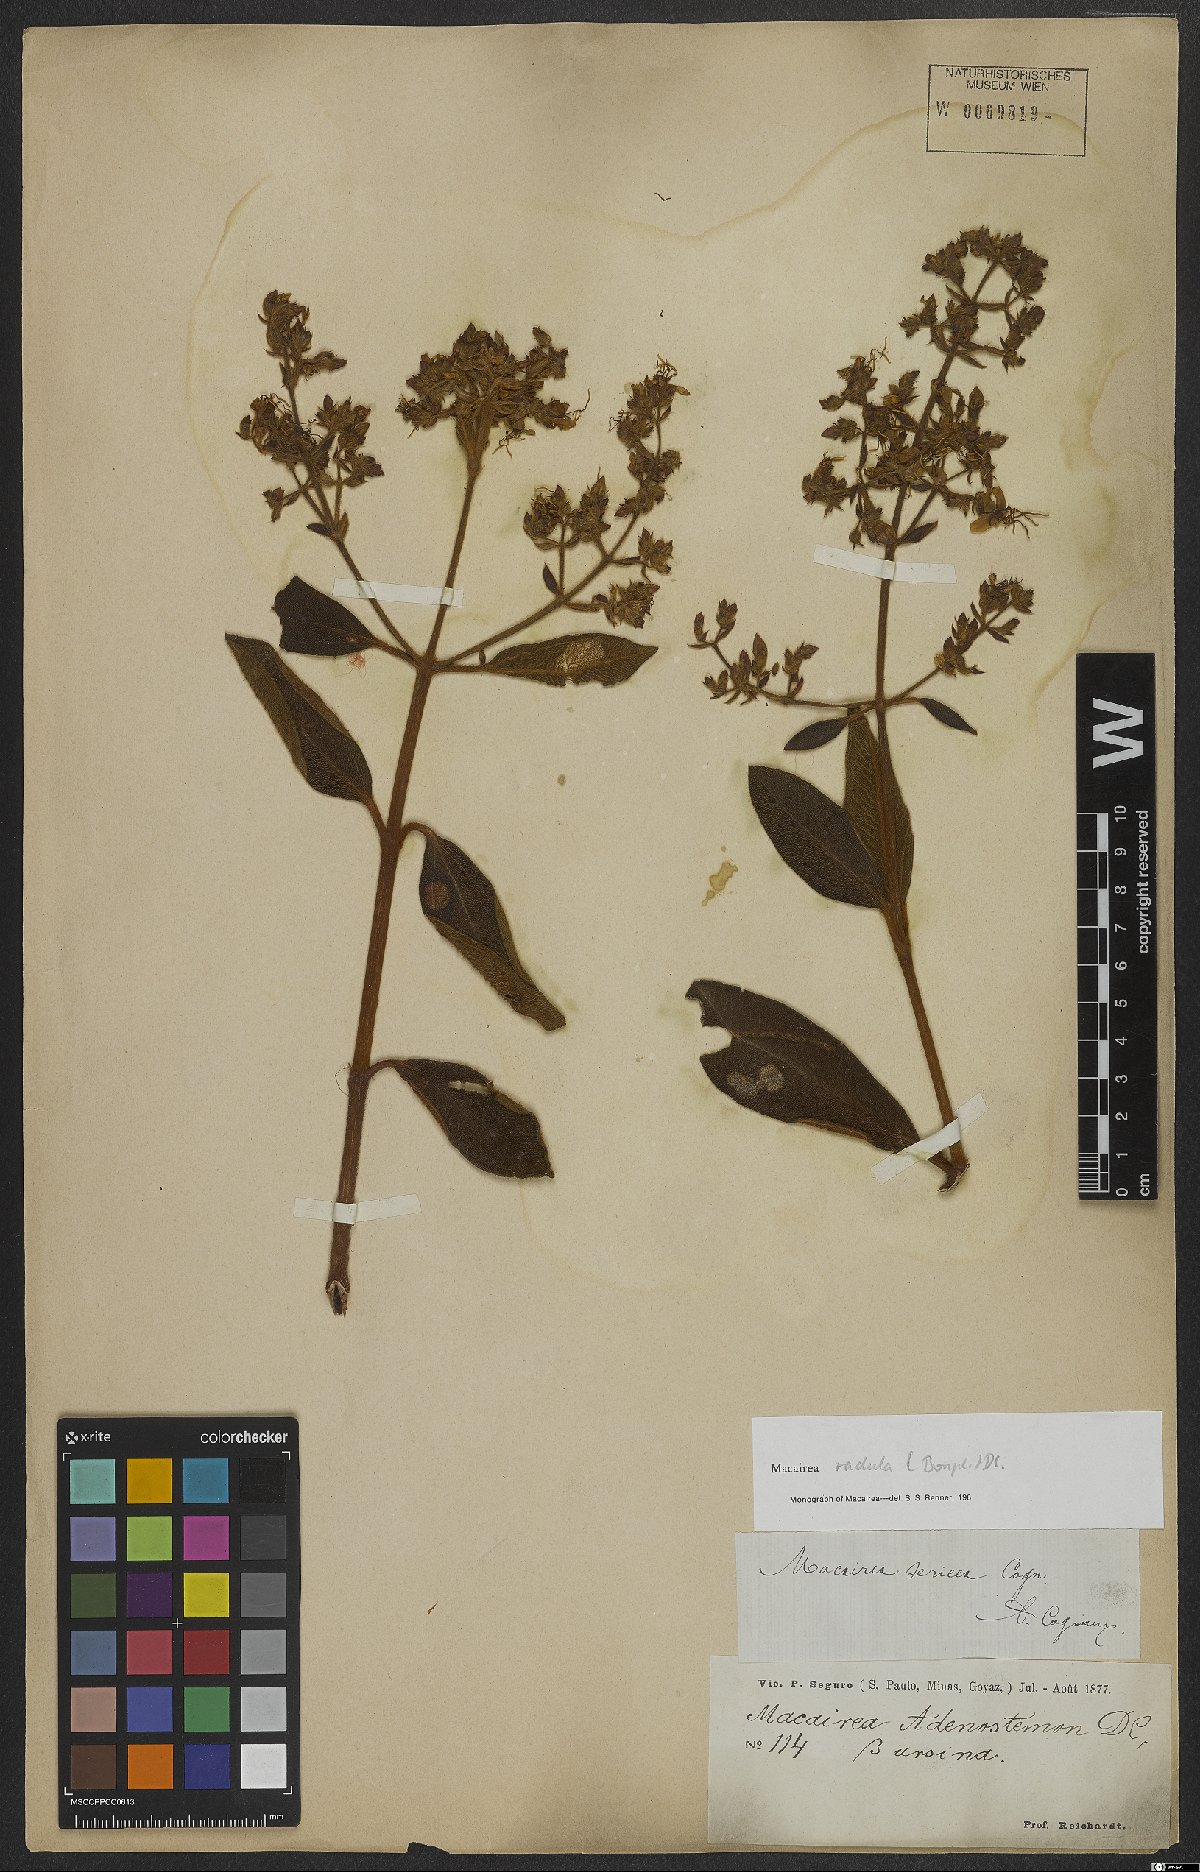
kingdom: Plantae
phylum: Tracheophyta
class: Magnoliopsida
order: Myrtales
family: Melastomataceae
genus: Macairea
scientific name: Macairea radula
